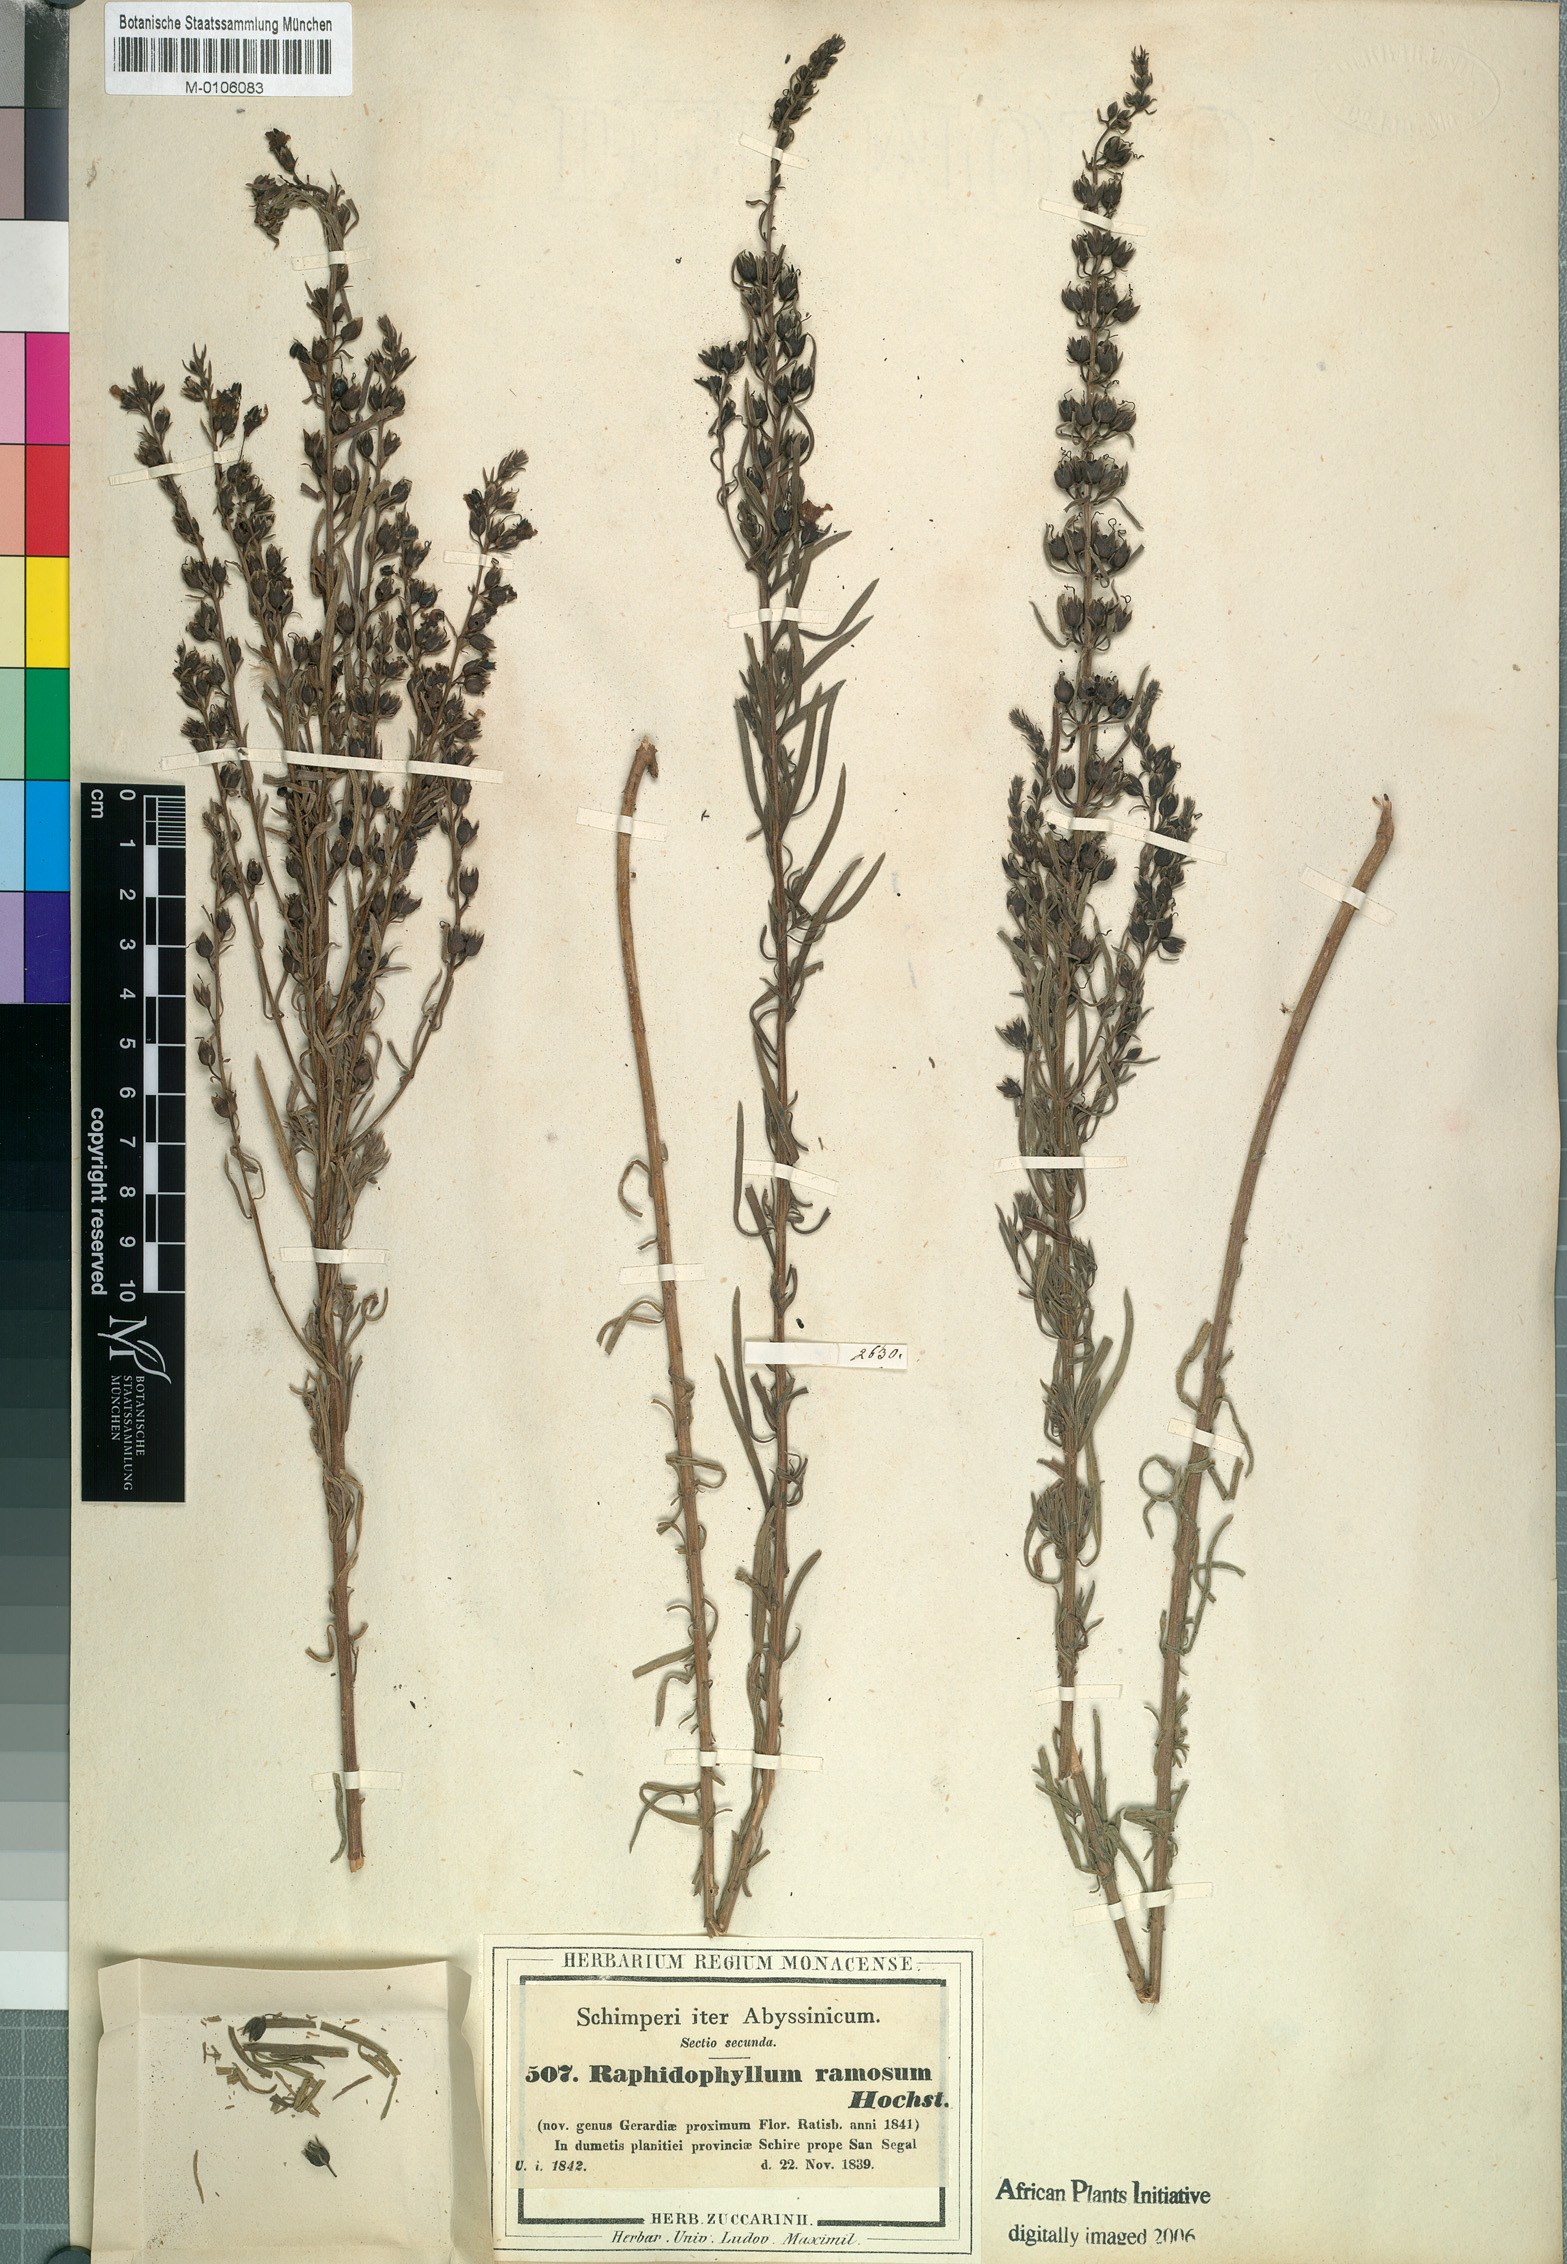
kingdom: Plantae
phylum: Tracheophyta
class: Magnoliopsida
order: Lamiales
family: Orobanchaceae
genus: Sopubia
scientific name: Sopubia ramosa
